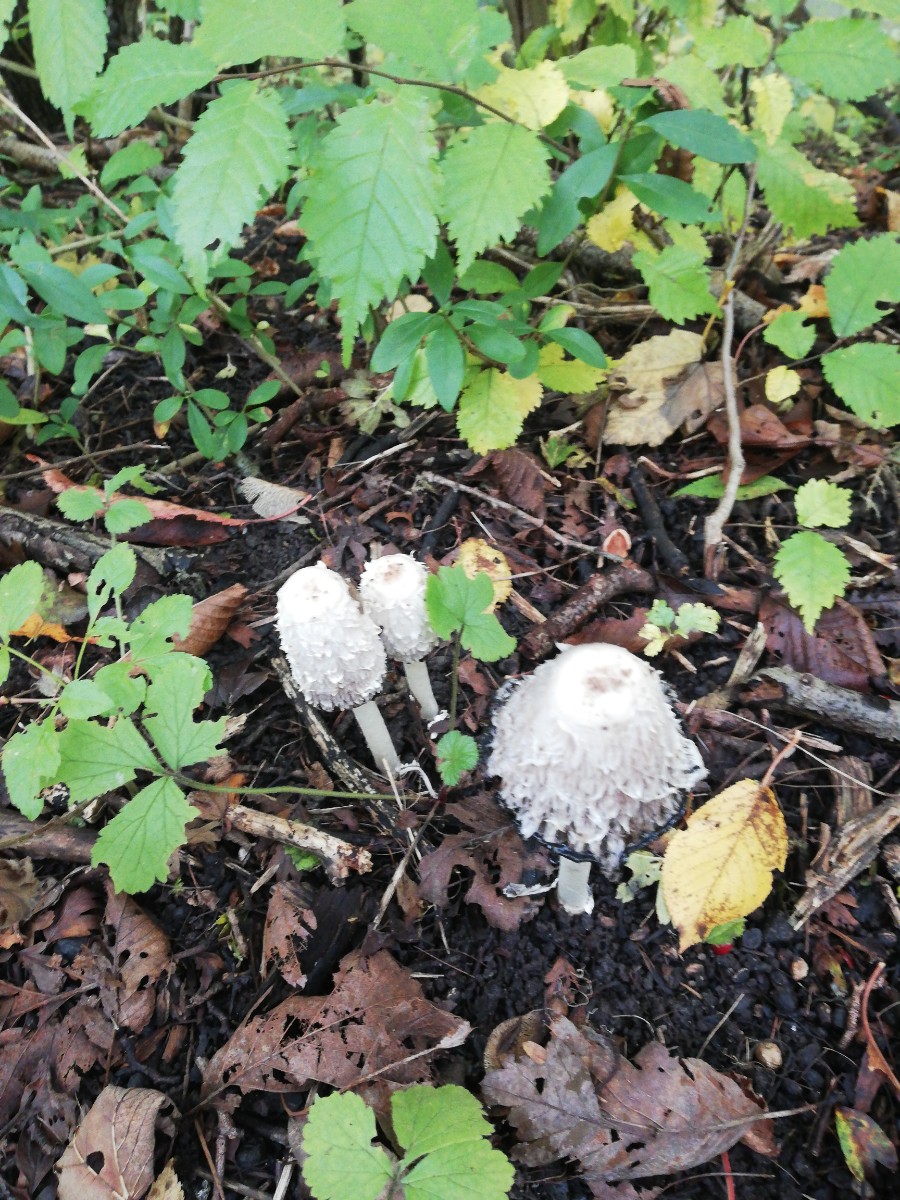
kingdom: Fungi
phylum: Basidiomycota
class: Agaricomycetes
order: Agaricales
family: Agaricaceae
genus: Coprinus
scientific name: Coprinus comatus
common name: stor parykhat
